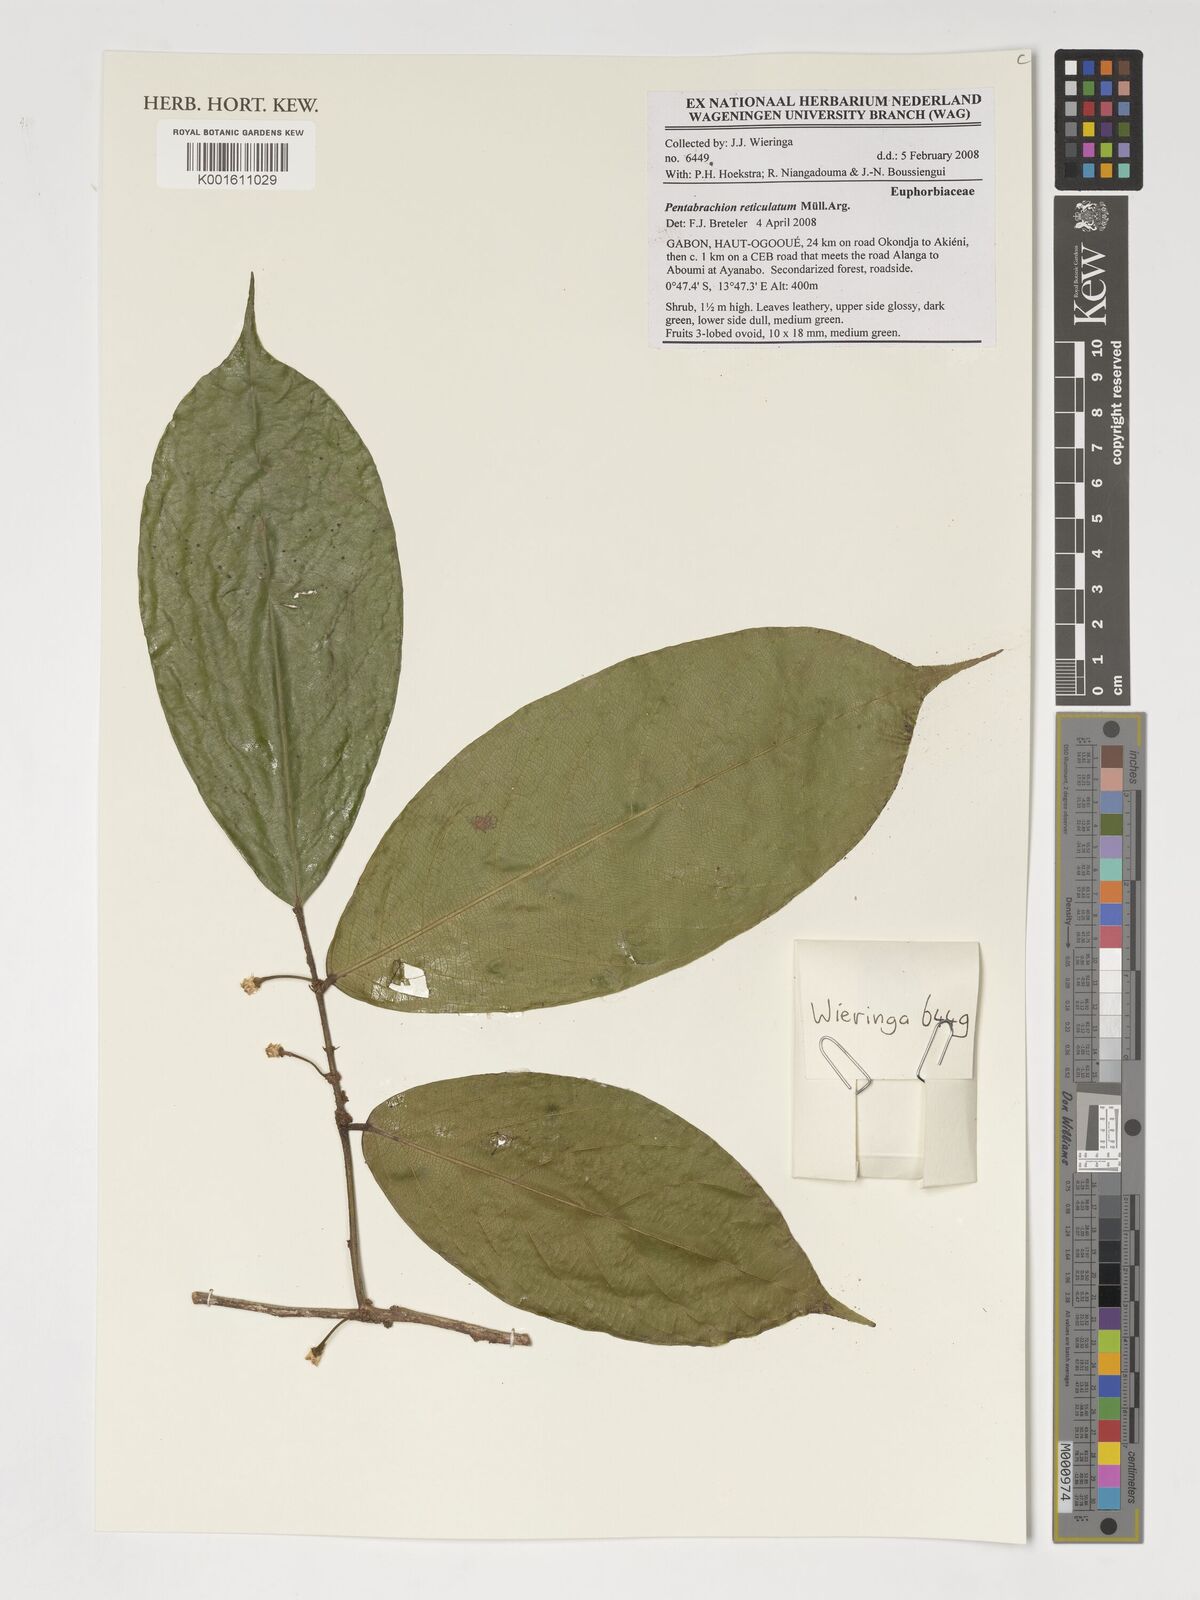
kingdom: Plantae
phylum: Tracheophyta
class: Magnoliopsida
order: Malpighiales
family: Phyllanthaceae
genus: Pentabrachion
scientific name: Pentabrachion reticulatum
